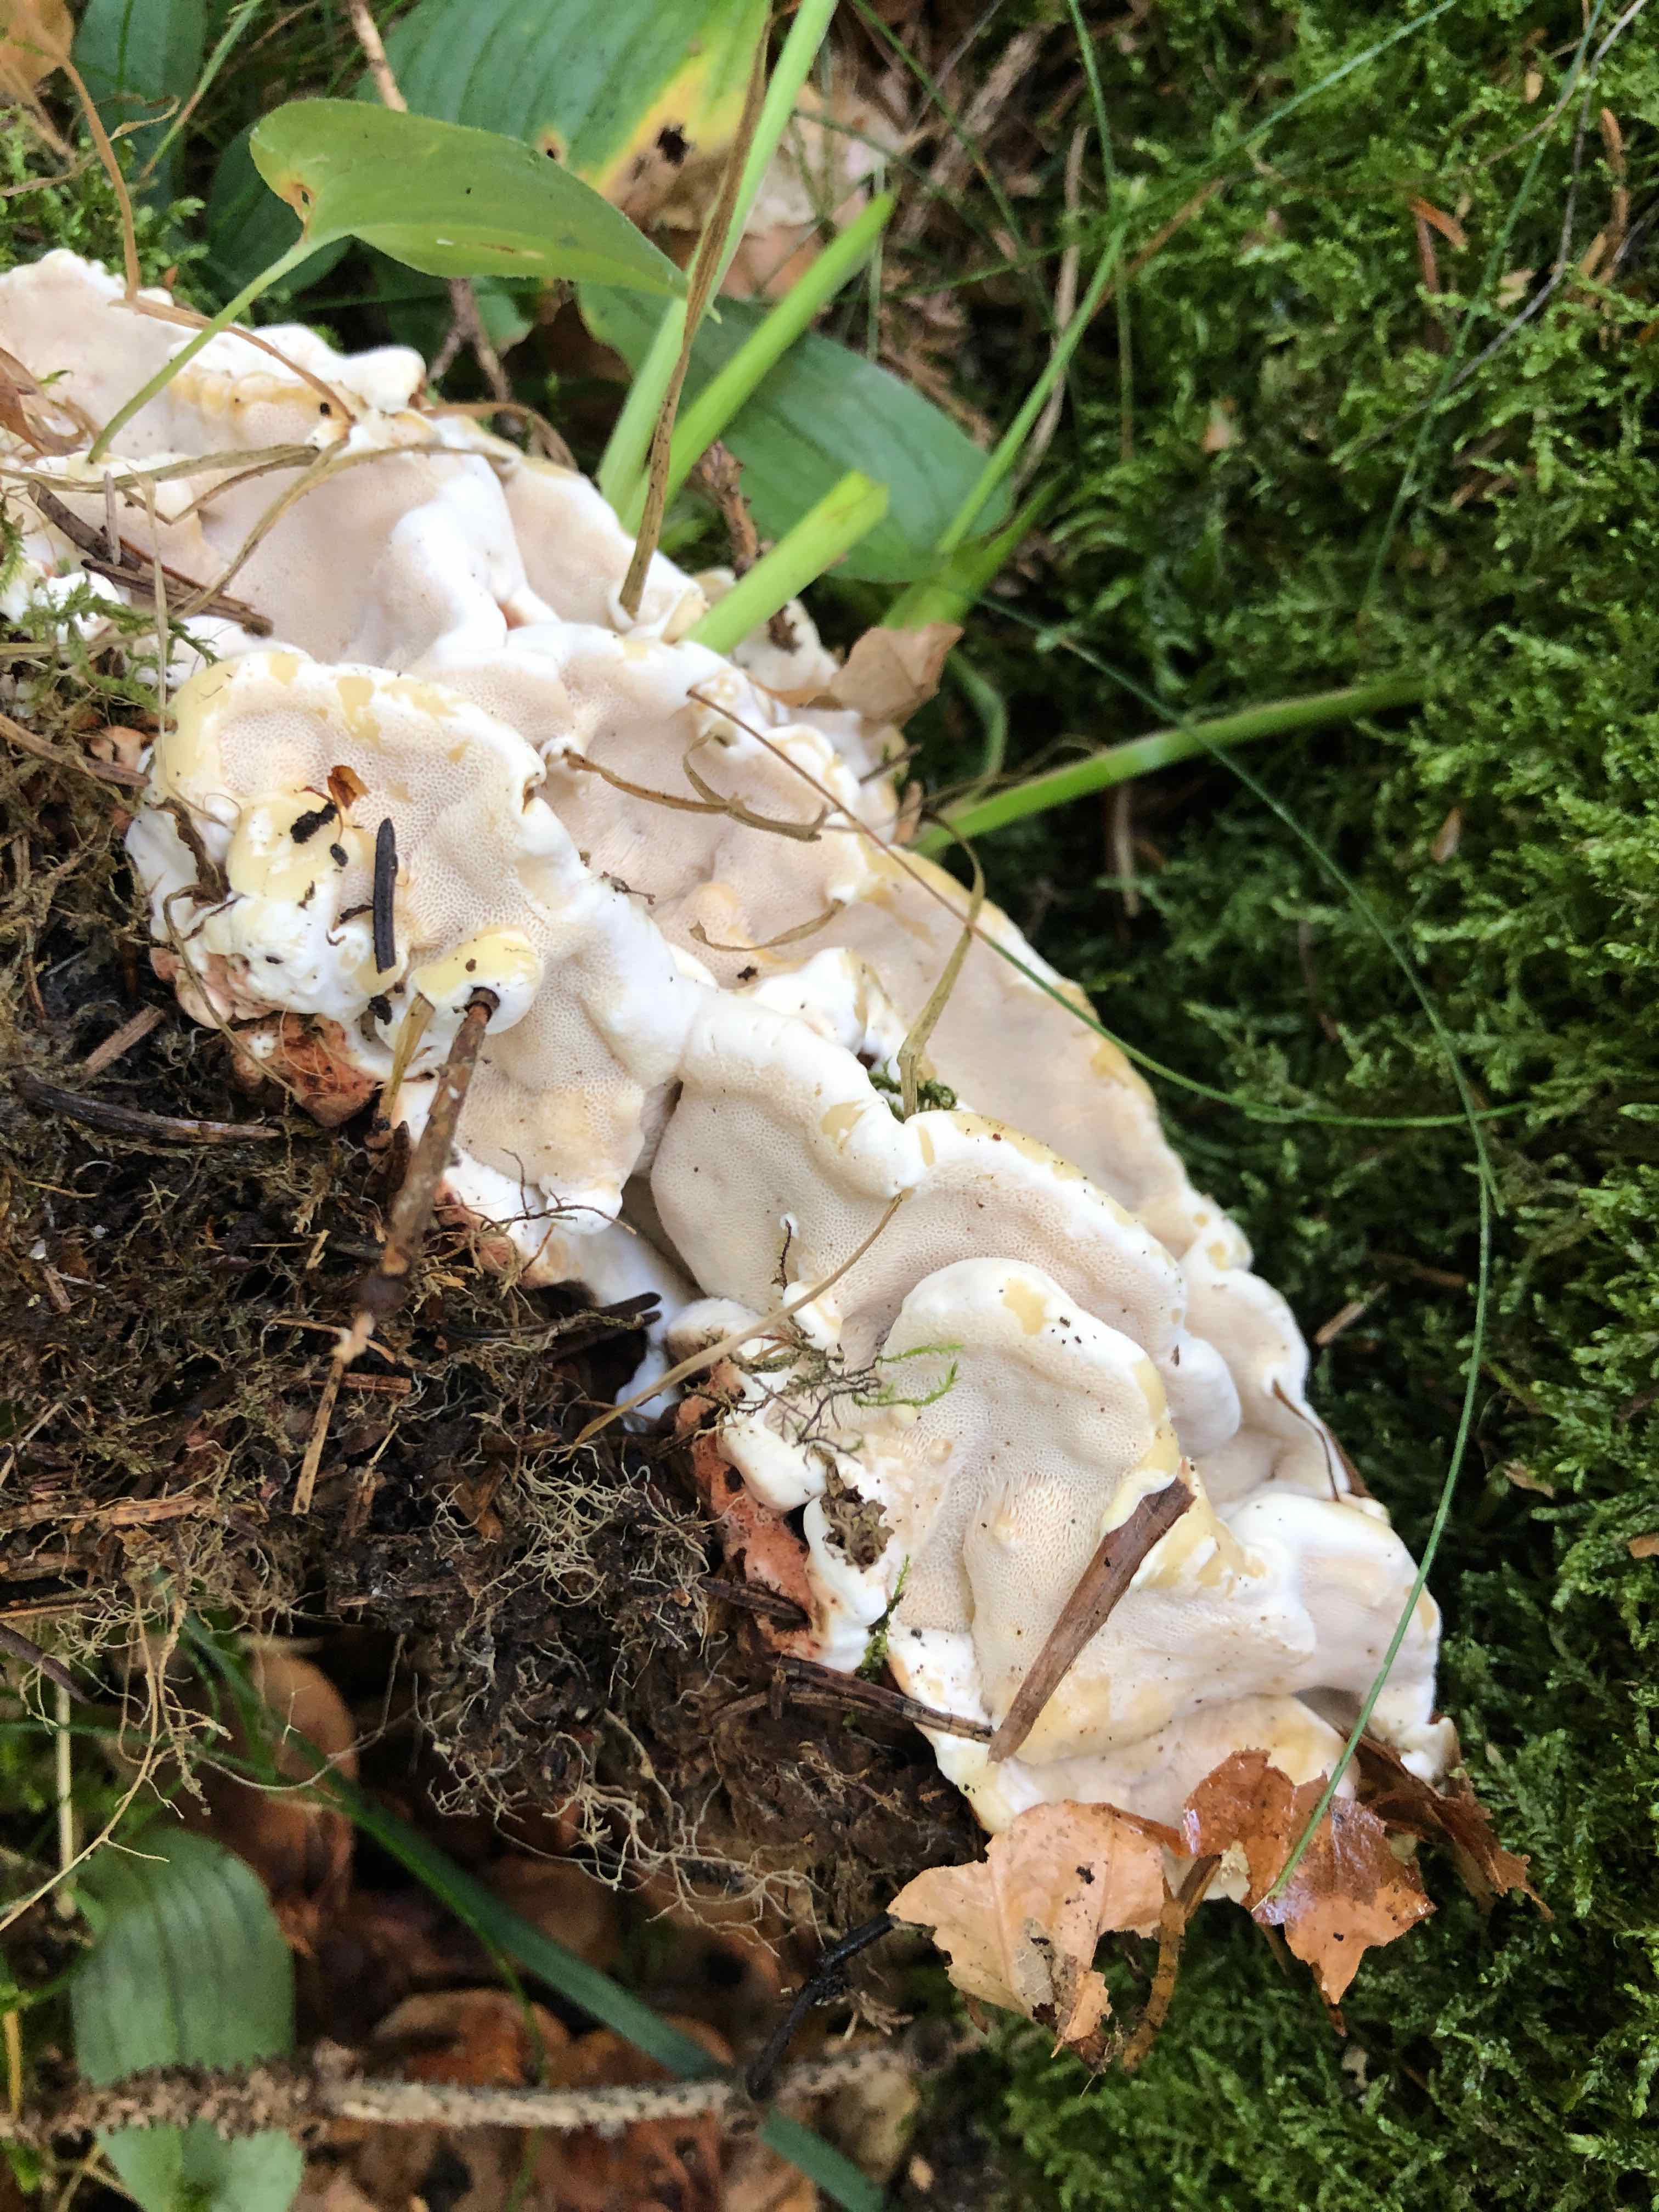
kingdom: Fungi
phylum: Basidiomycota
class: Agaricomycetes
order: Russulales
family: Bondarzewiaceae
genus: Heterobasidion
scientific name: Heterobasidion annosum
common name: almindelig rodfordærver
